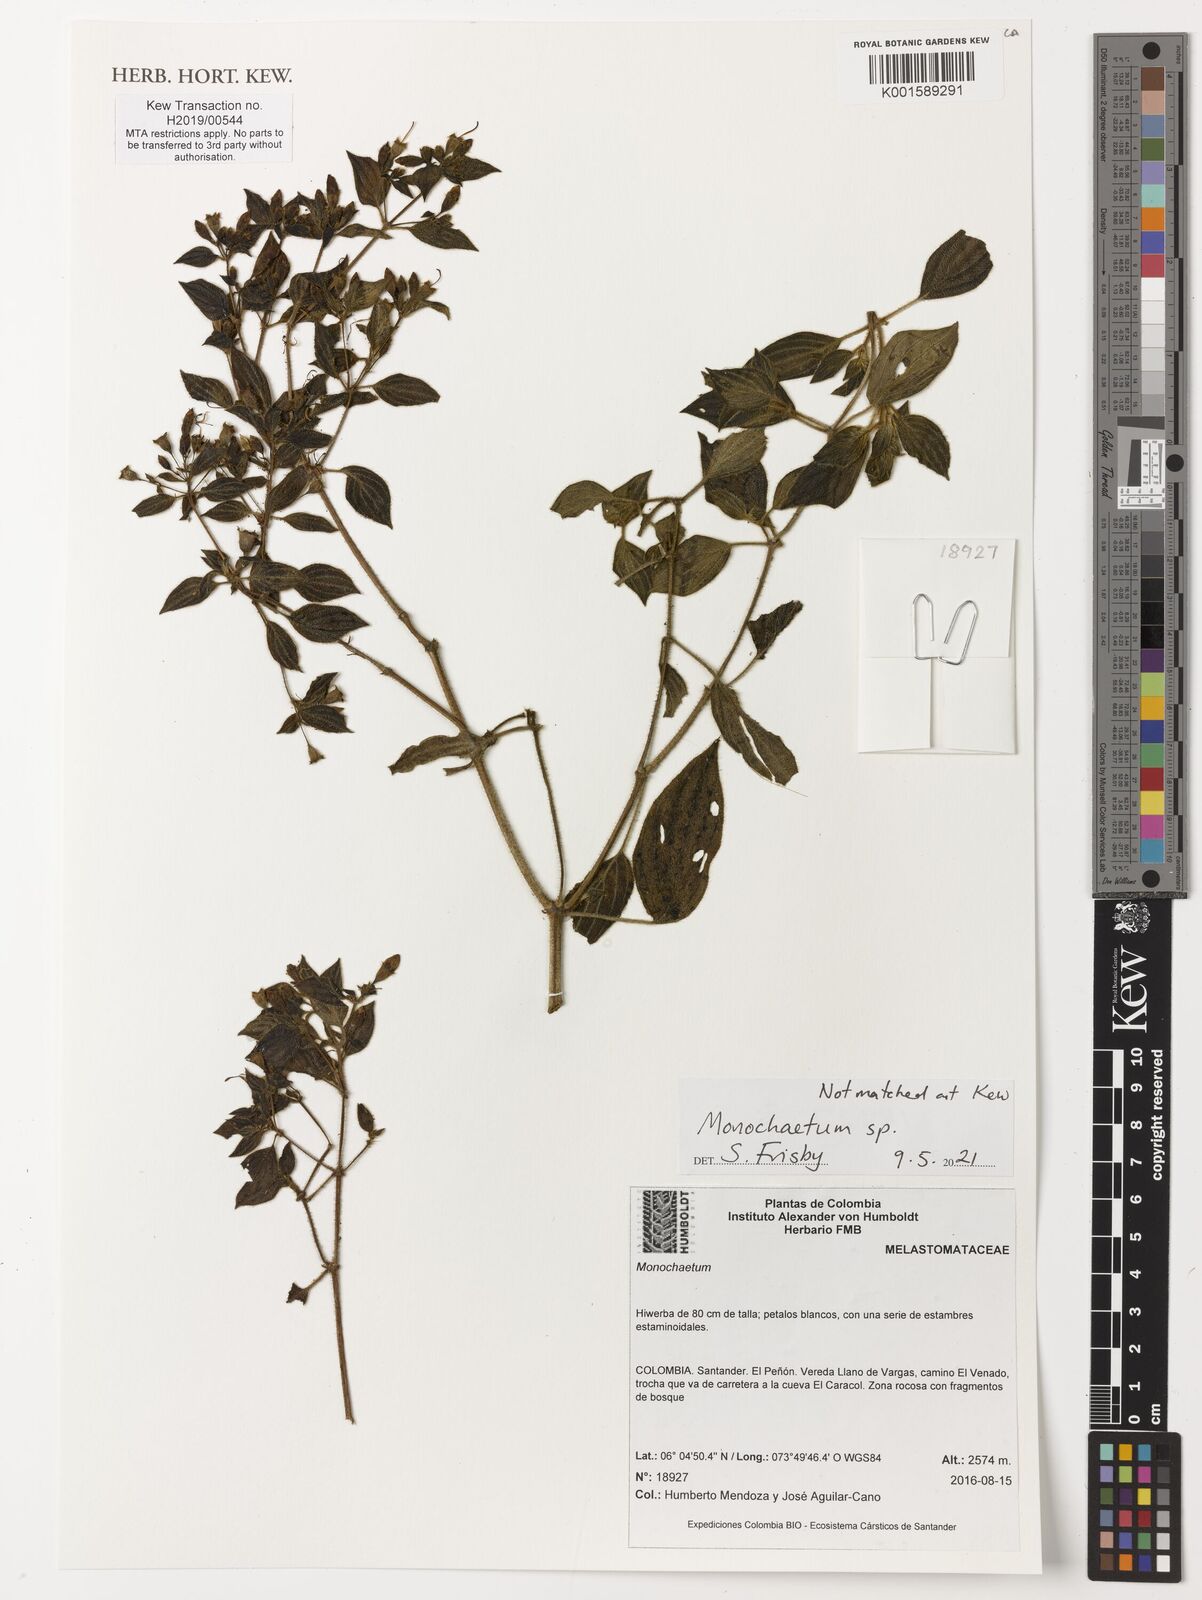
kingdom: Plantae
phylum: Tracheophyta
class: Magnoliopsida
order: Myrtales
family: Melastomataceae
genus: Monochaetum
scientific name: Monochaetum
